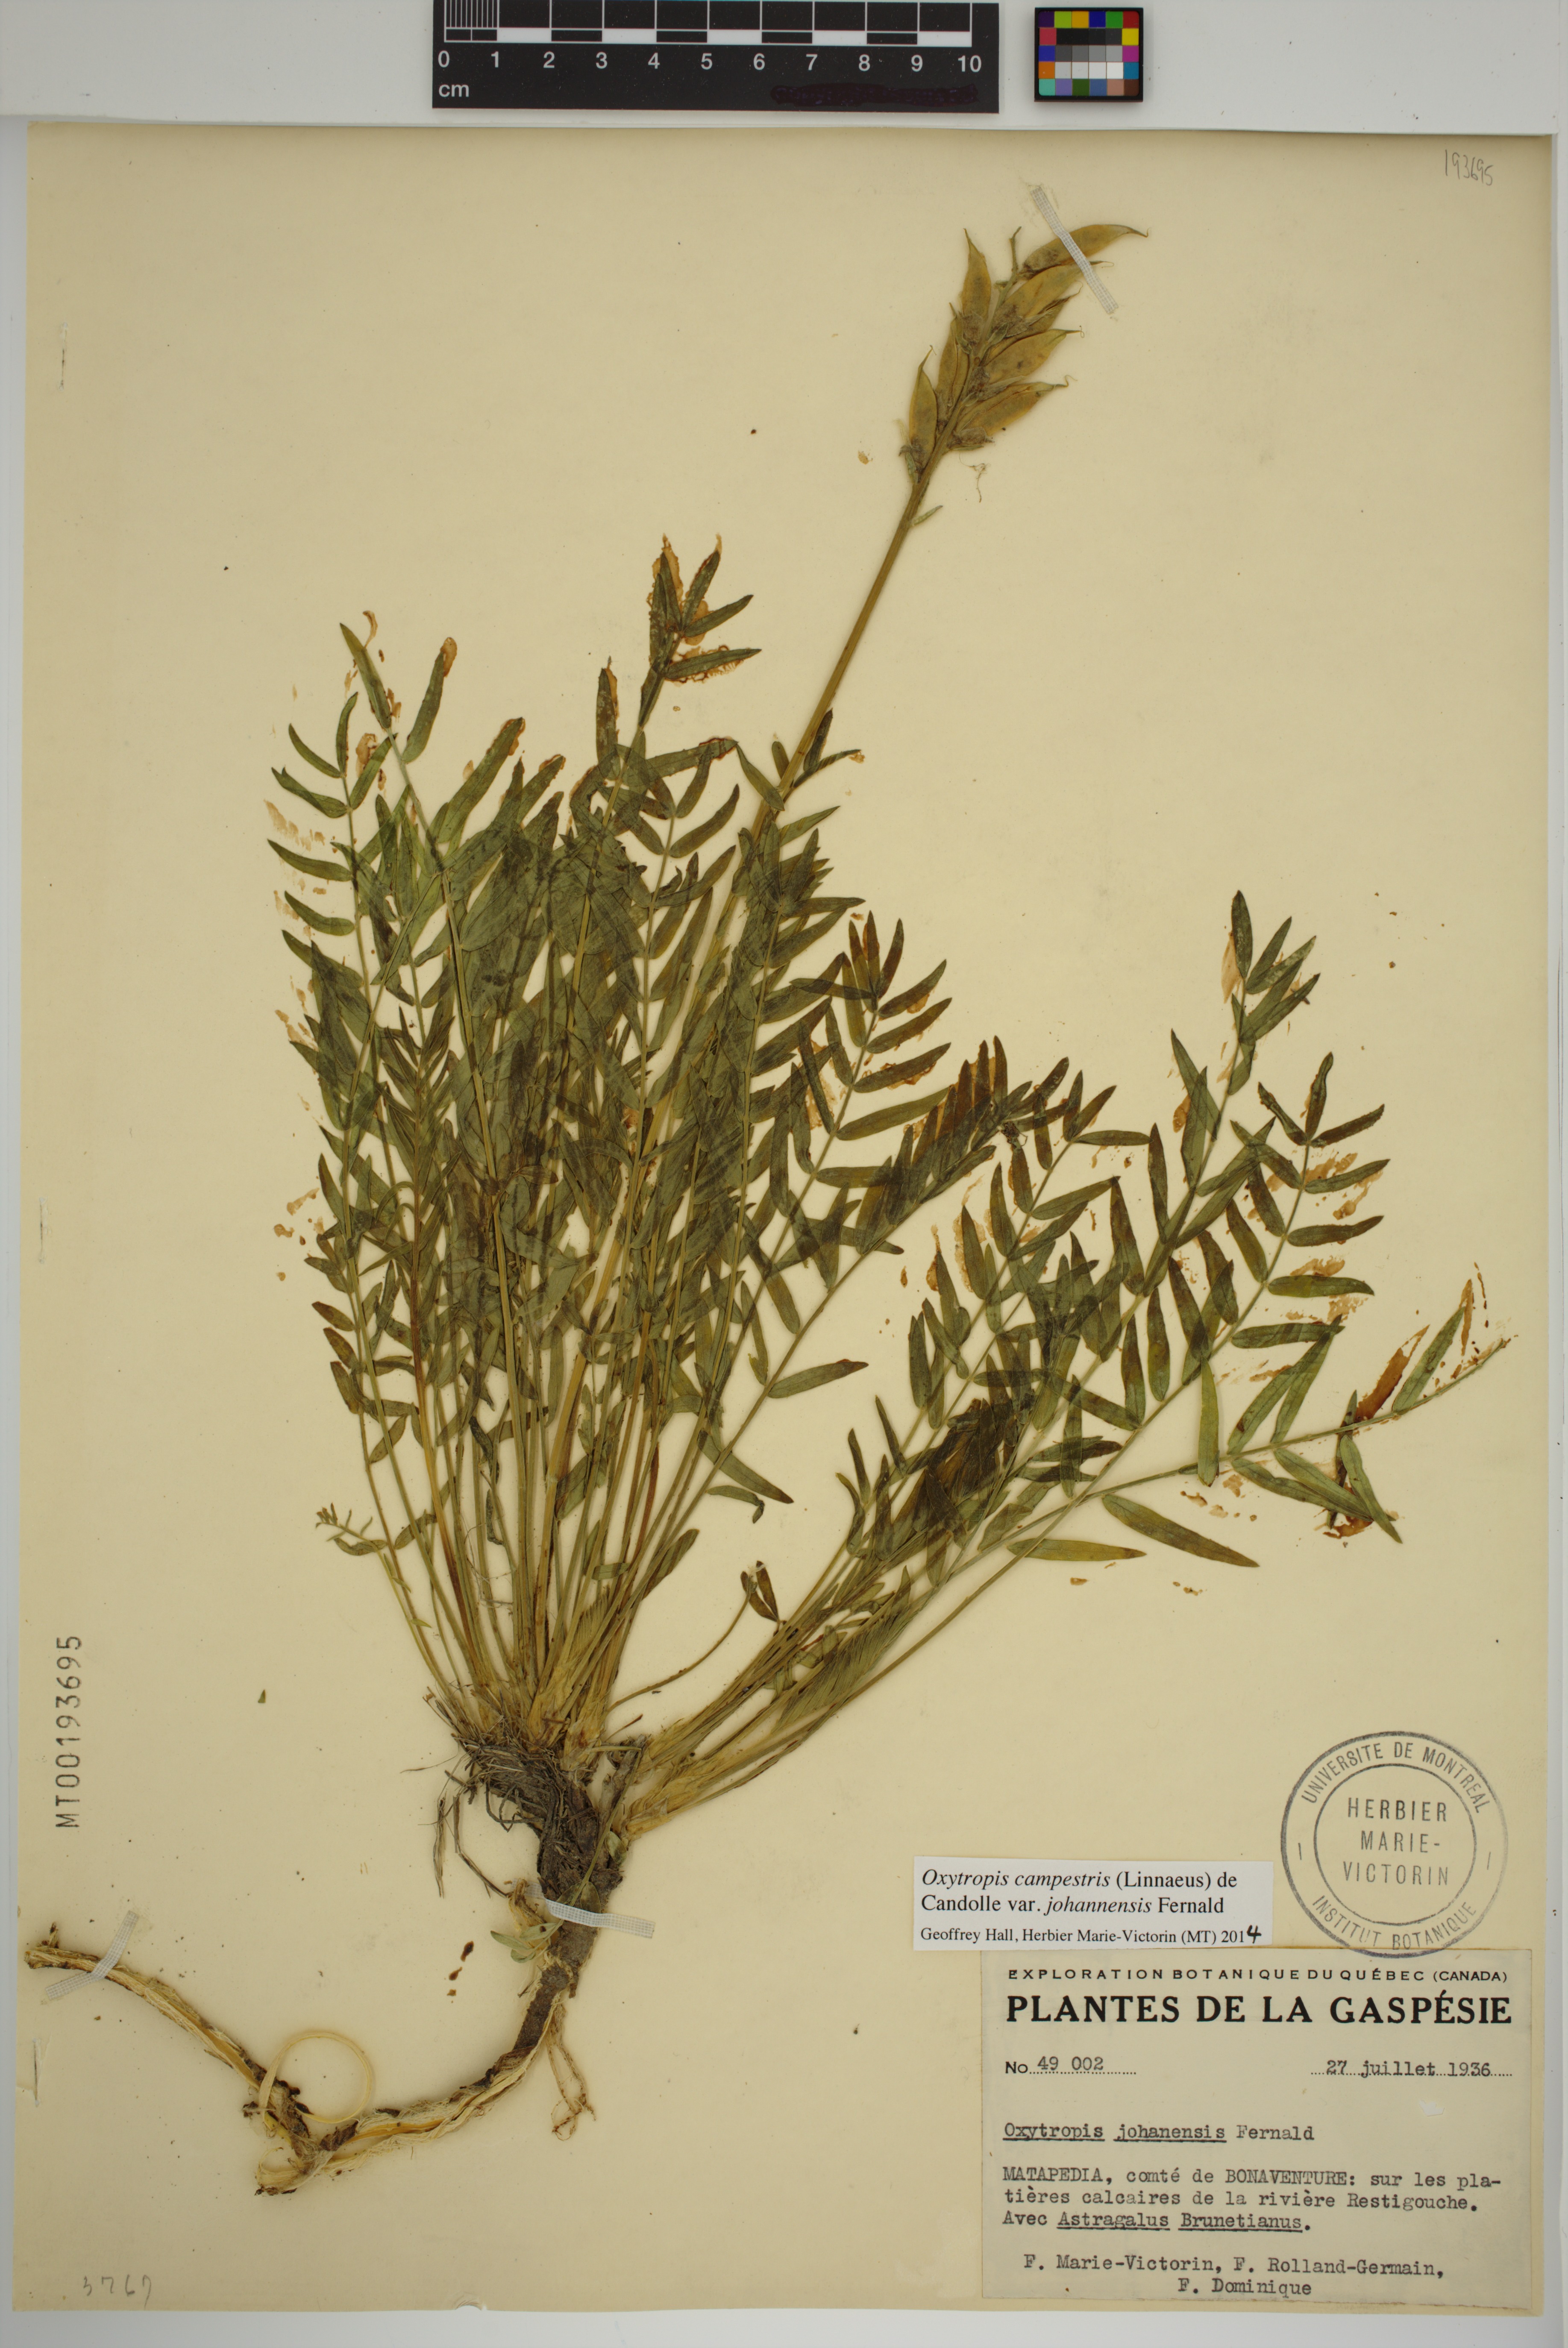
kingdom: Plantae
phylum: Tracheophyta
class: Magnoliopsida
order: Fabales
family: Fabaceae
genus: Oxytropis
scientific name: Oxytropis campestris
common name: Field locoweed
